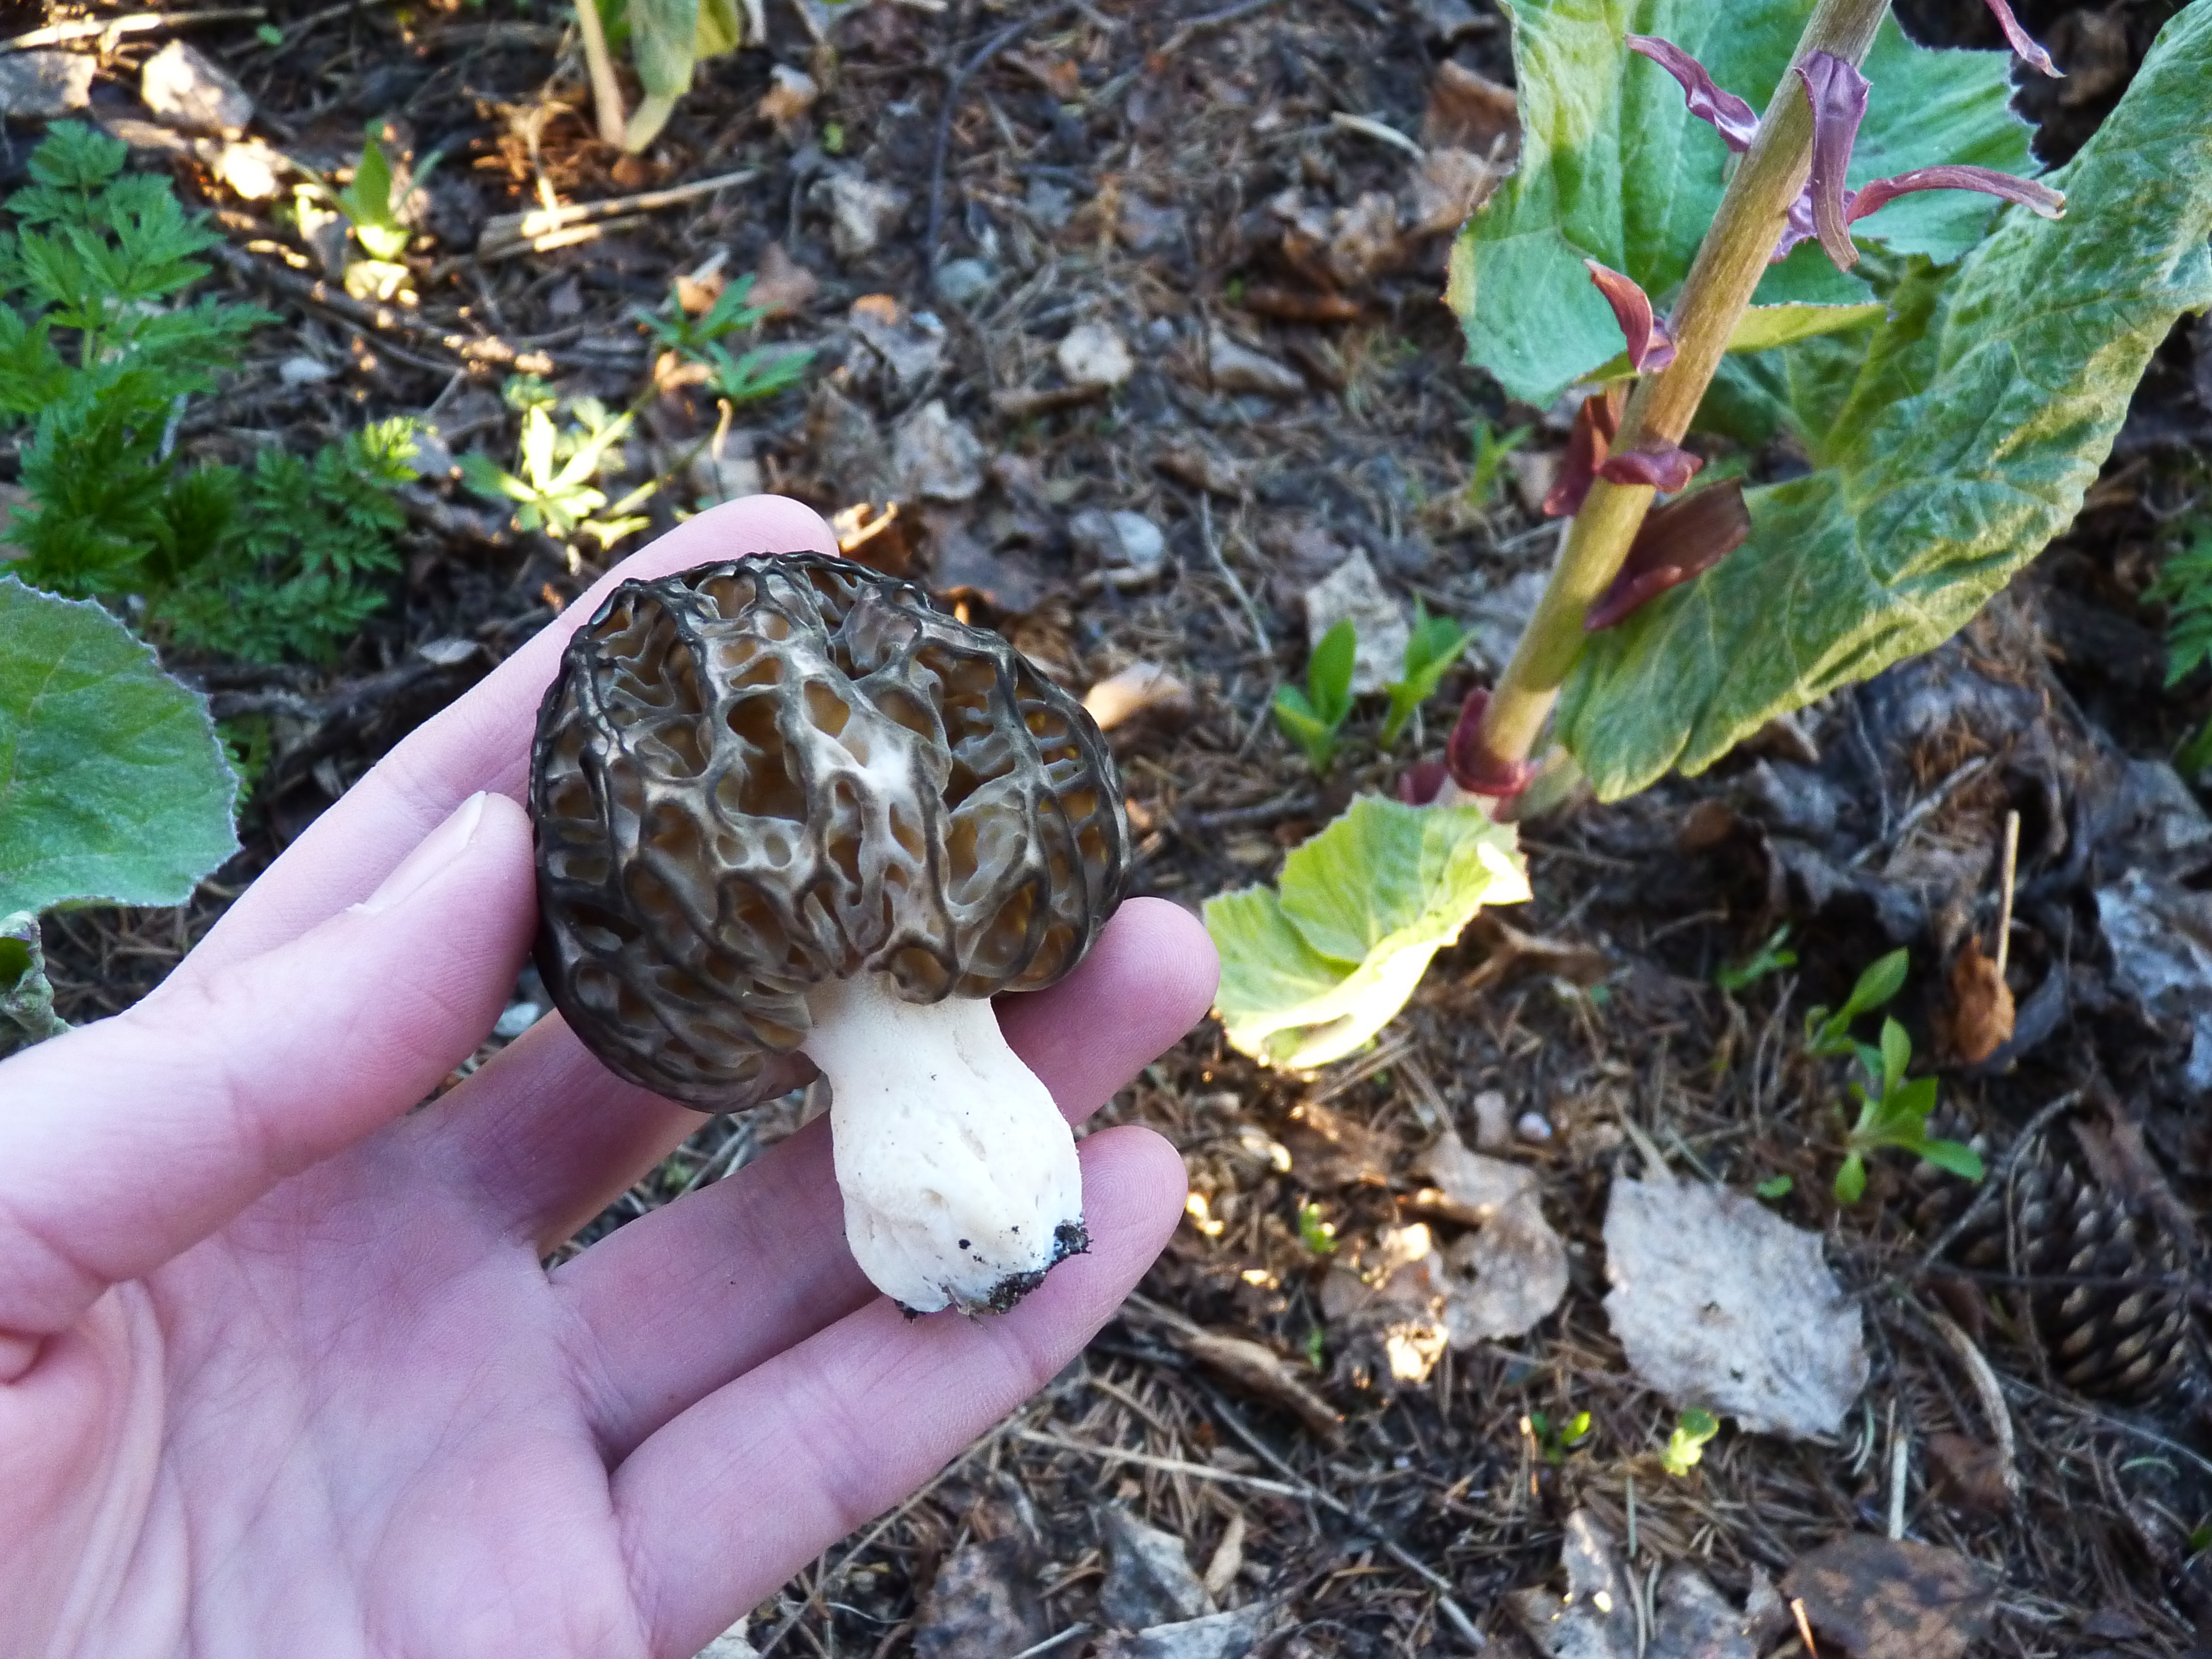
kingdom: Fungi
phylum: Ascomycota
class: Pezizomycetes
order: Pezizales
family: Morchellaceae
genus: Morchella
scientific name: Morchella elata
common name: Black morel
